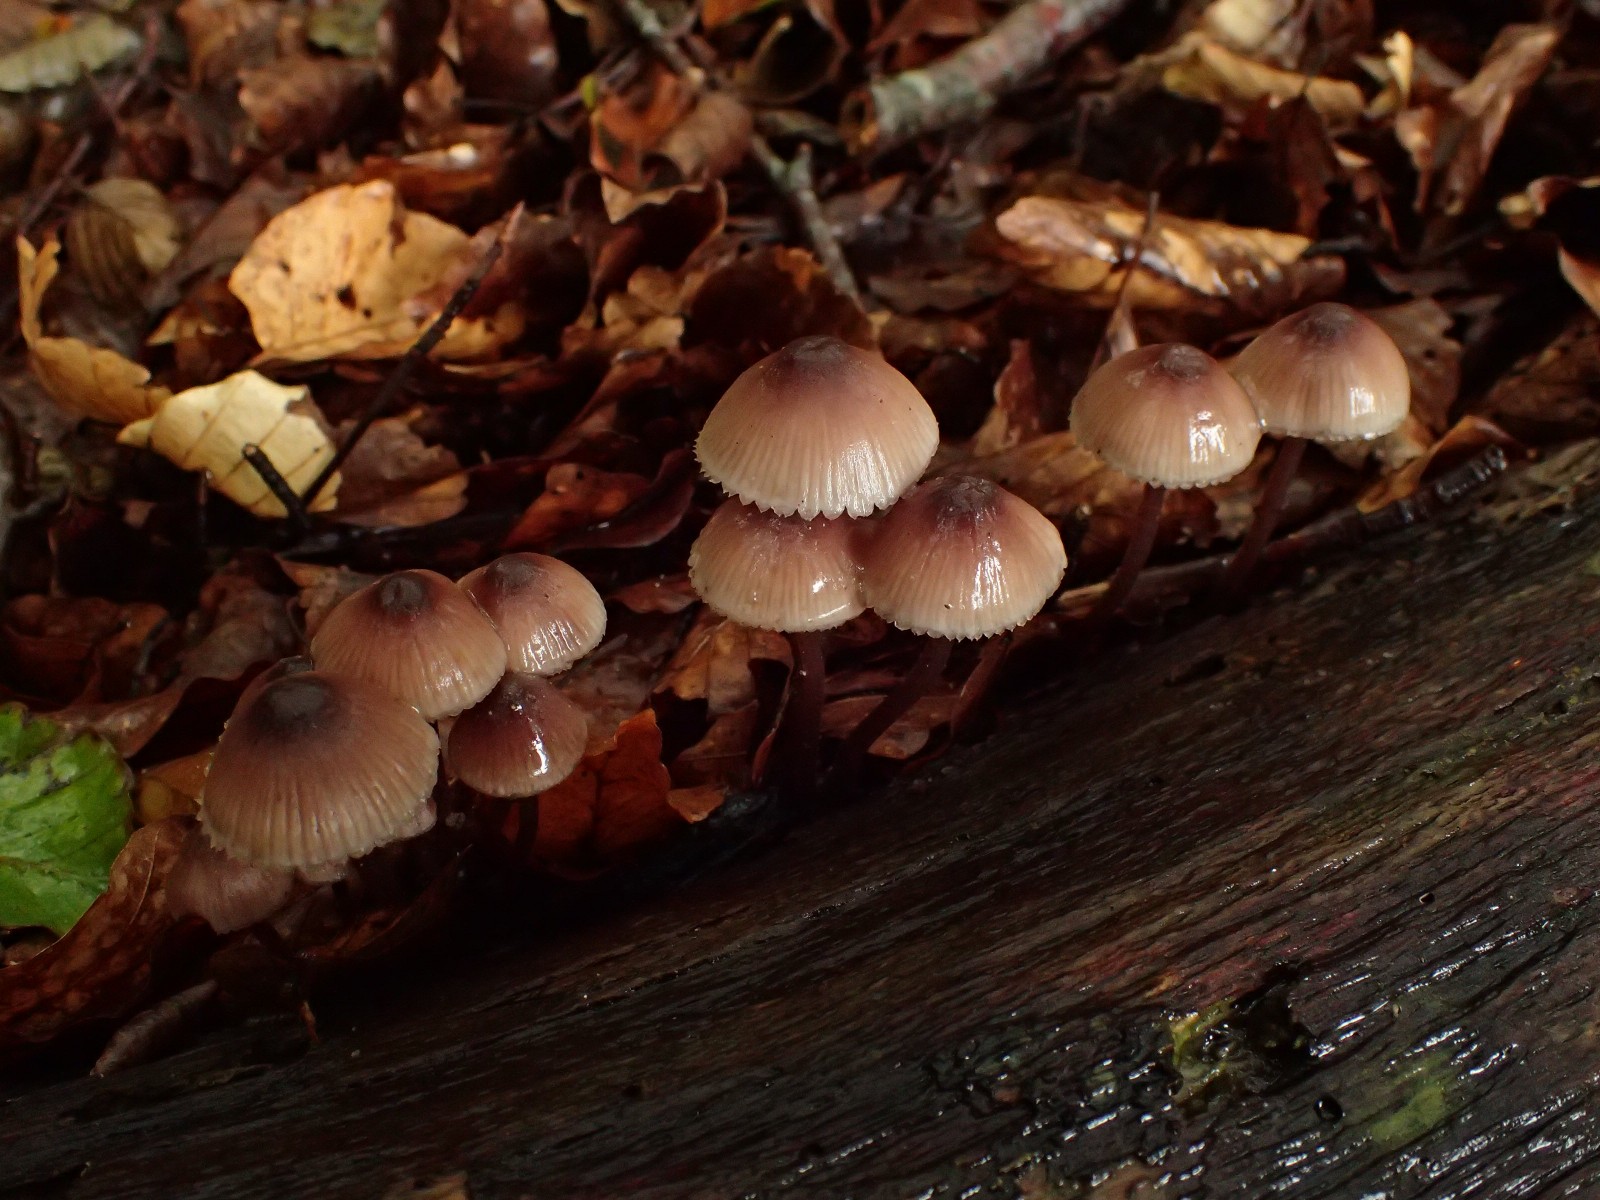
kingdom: Fungi
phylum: Basidiomycota
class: Agaricomycetes
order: Agaricales
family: Mycenaceae
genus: Mycena
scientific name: Mycena haematopus
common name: blødende huesvamp
